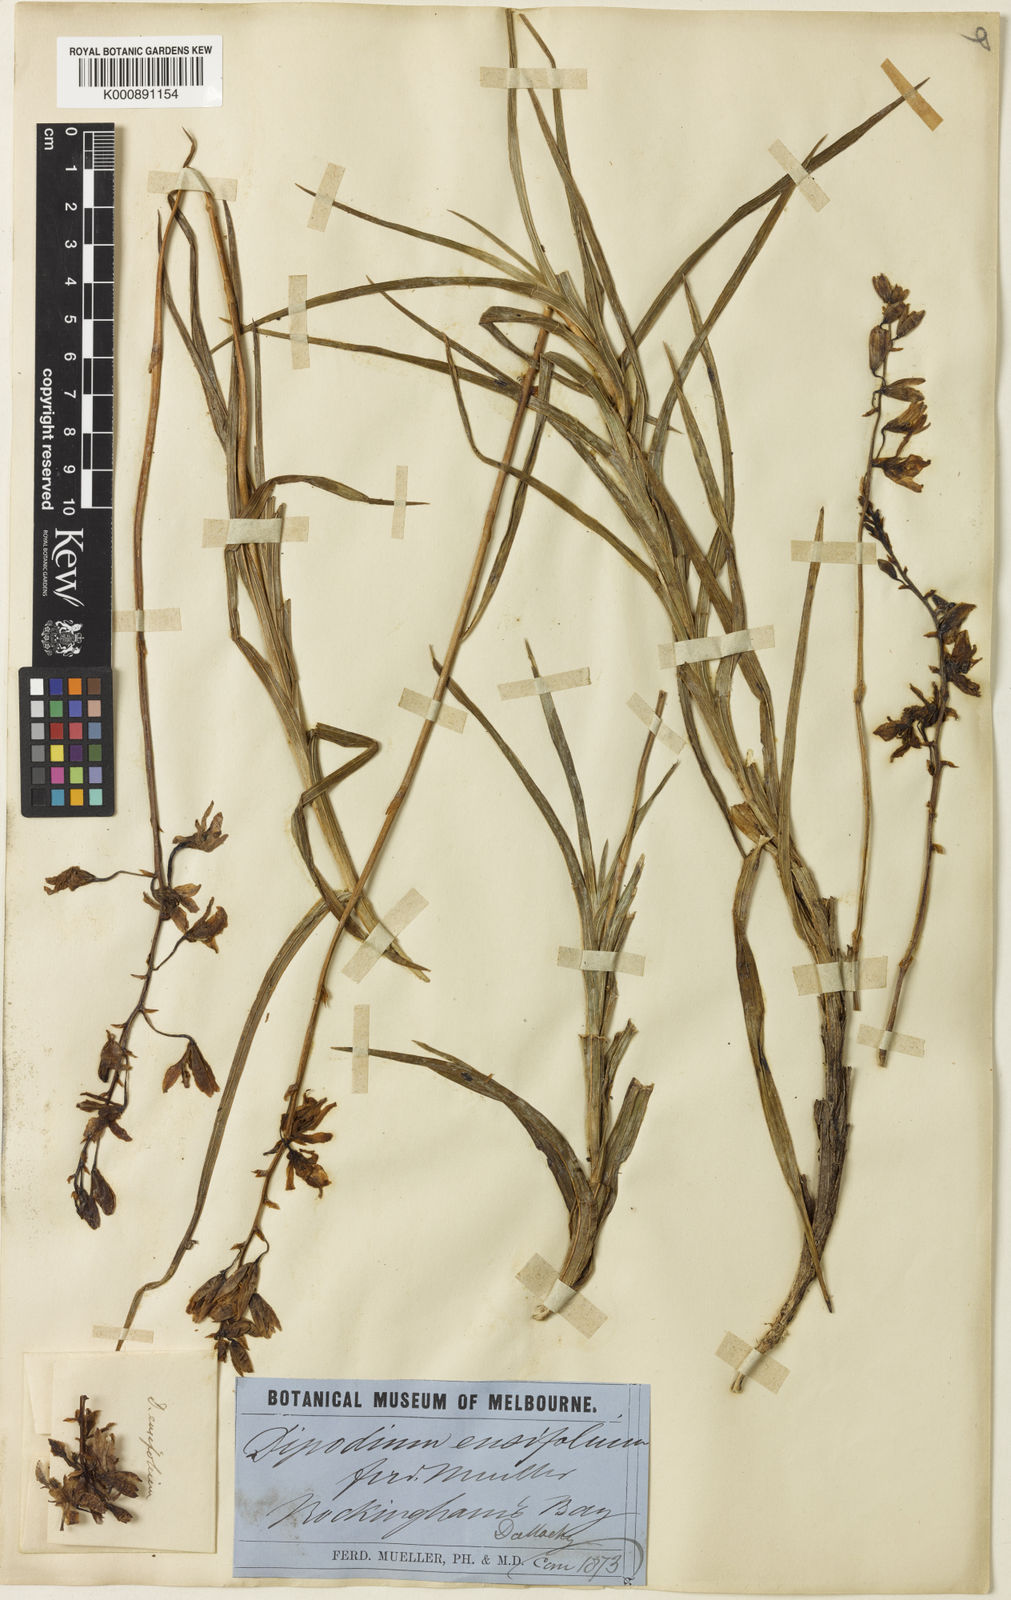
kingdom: Plantae
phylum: Tracheophyta
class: Liliopsida
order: Asparagales
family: Orchidaceae
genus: Dipodium
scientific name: Dipodium ensifolium
